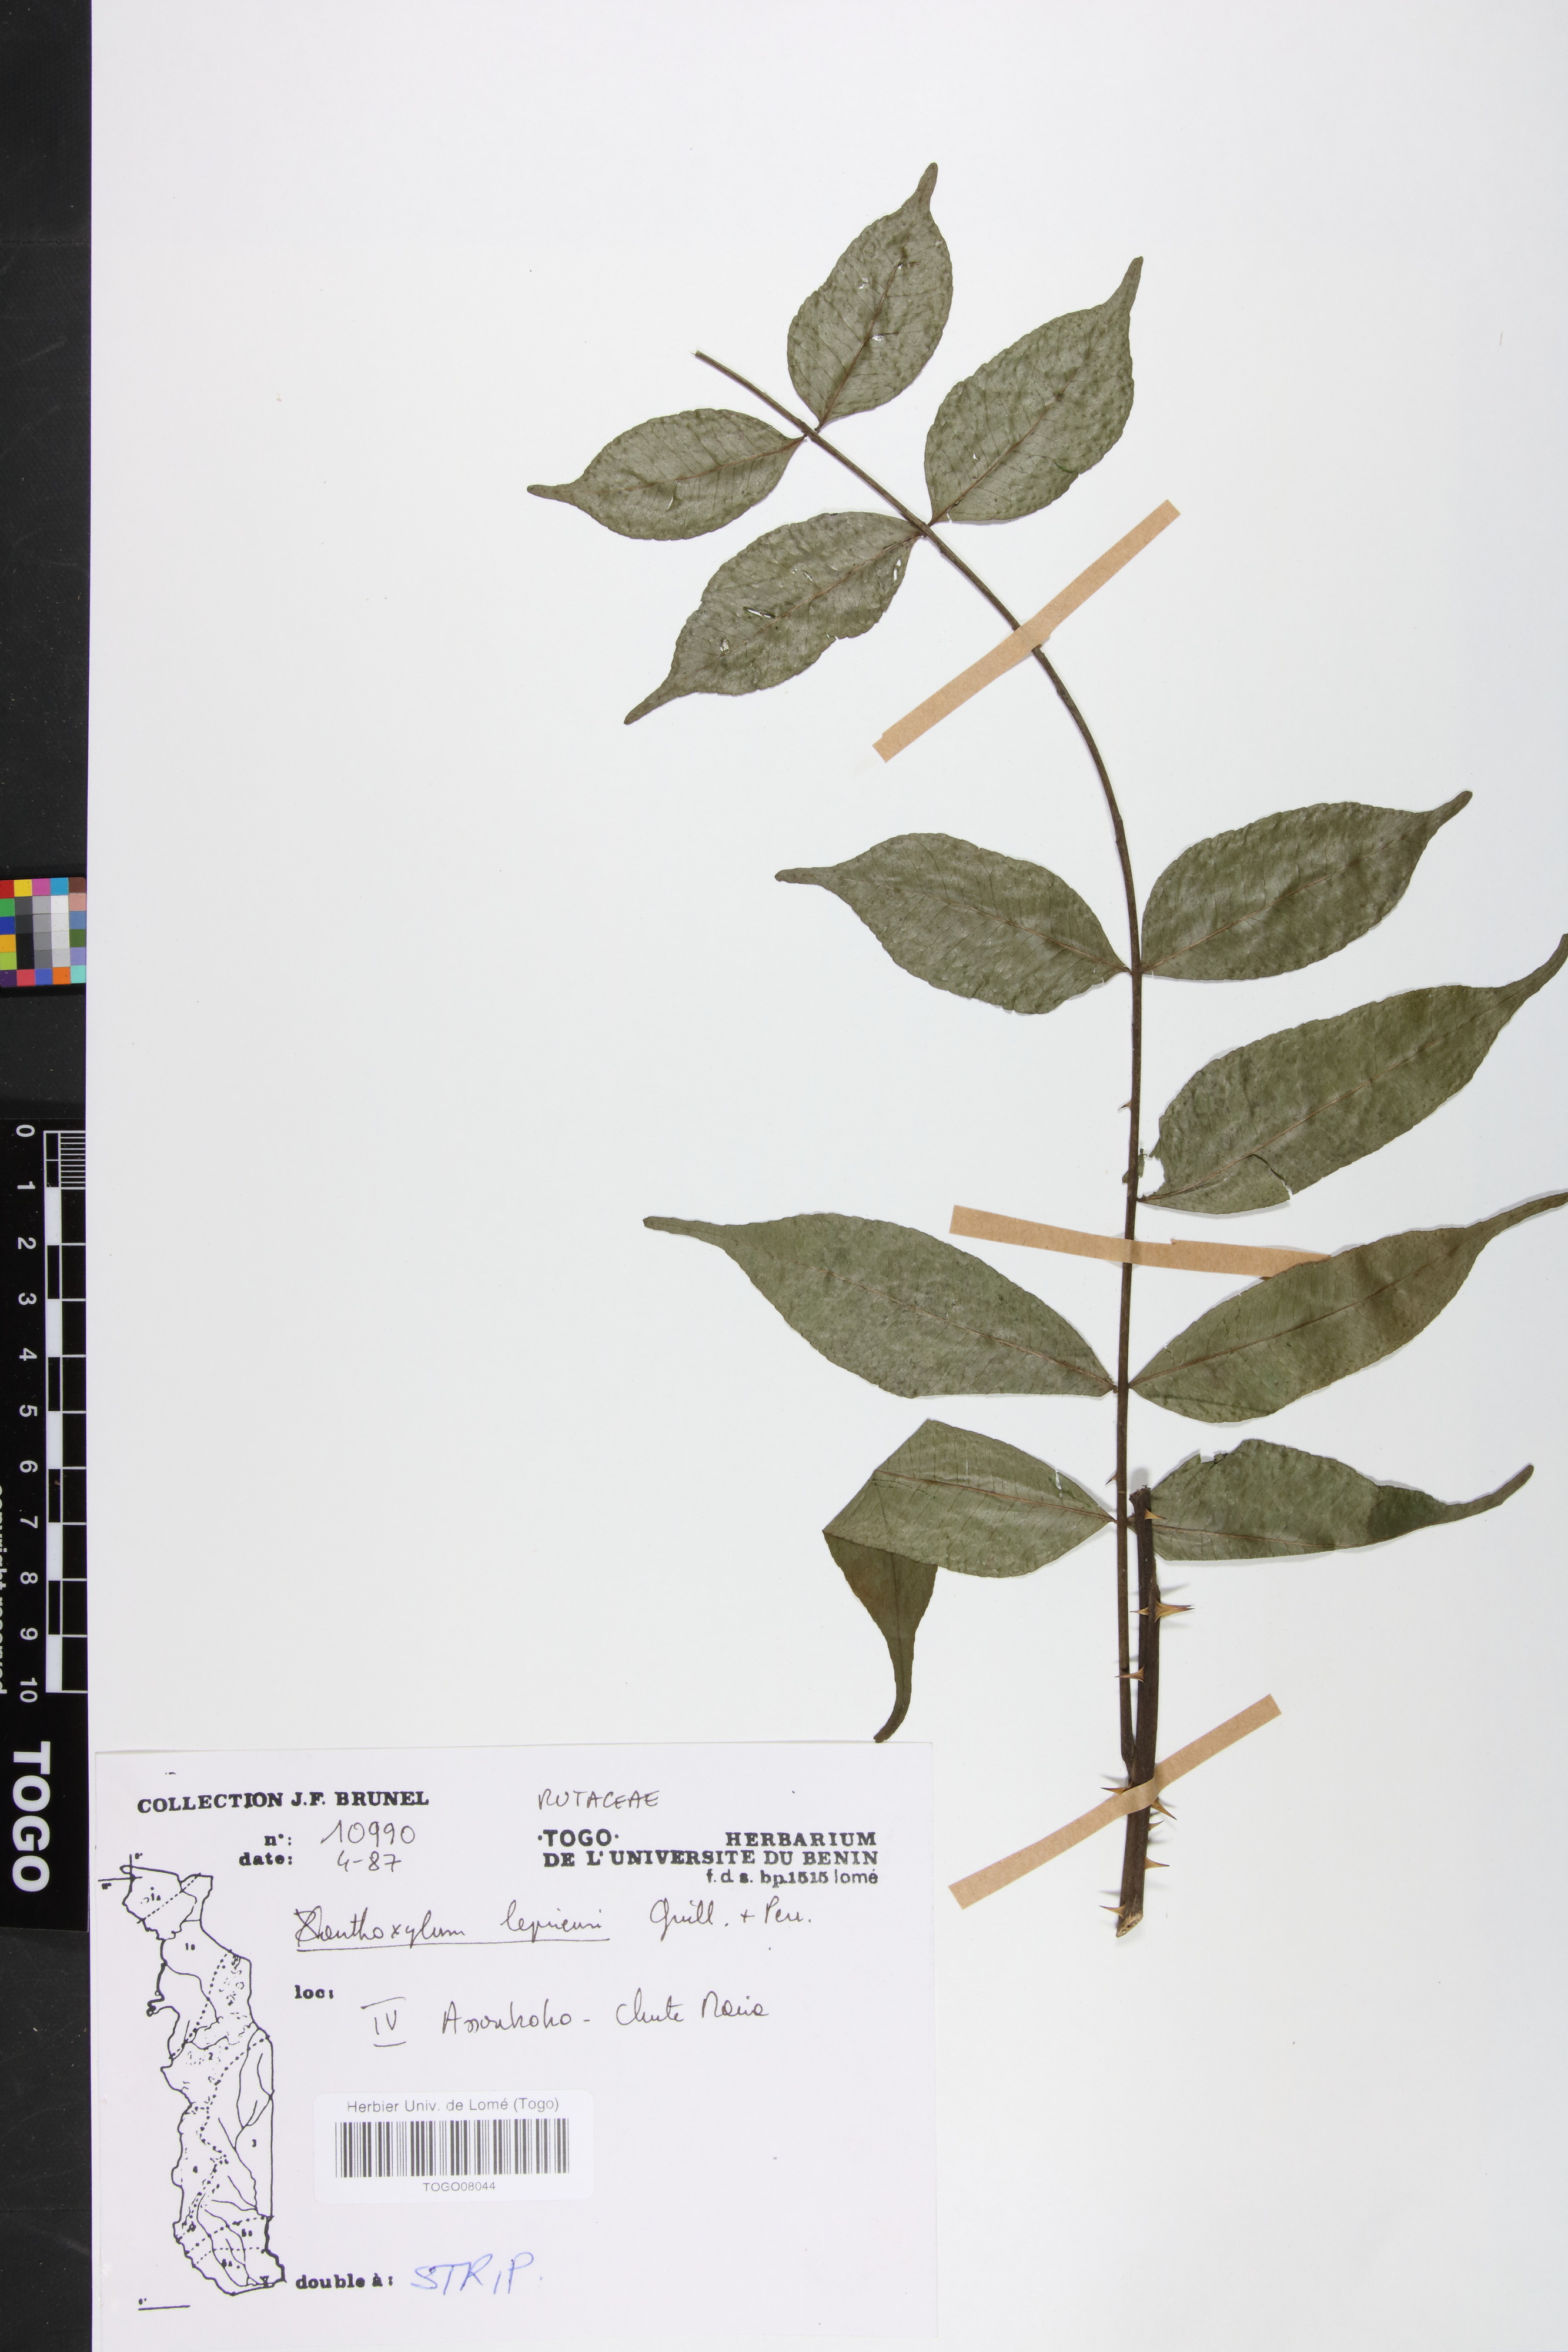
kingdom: Plantae
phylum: Tracheophyta
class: Magnoliopsida
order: Sapindales
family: Rutaceae
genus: Zanthoxylum
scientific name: Zanthoxylum
